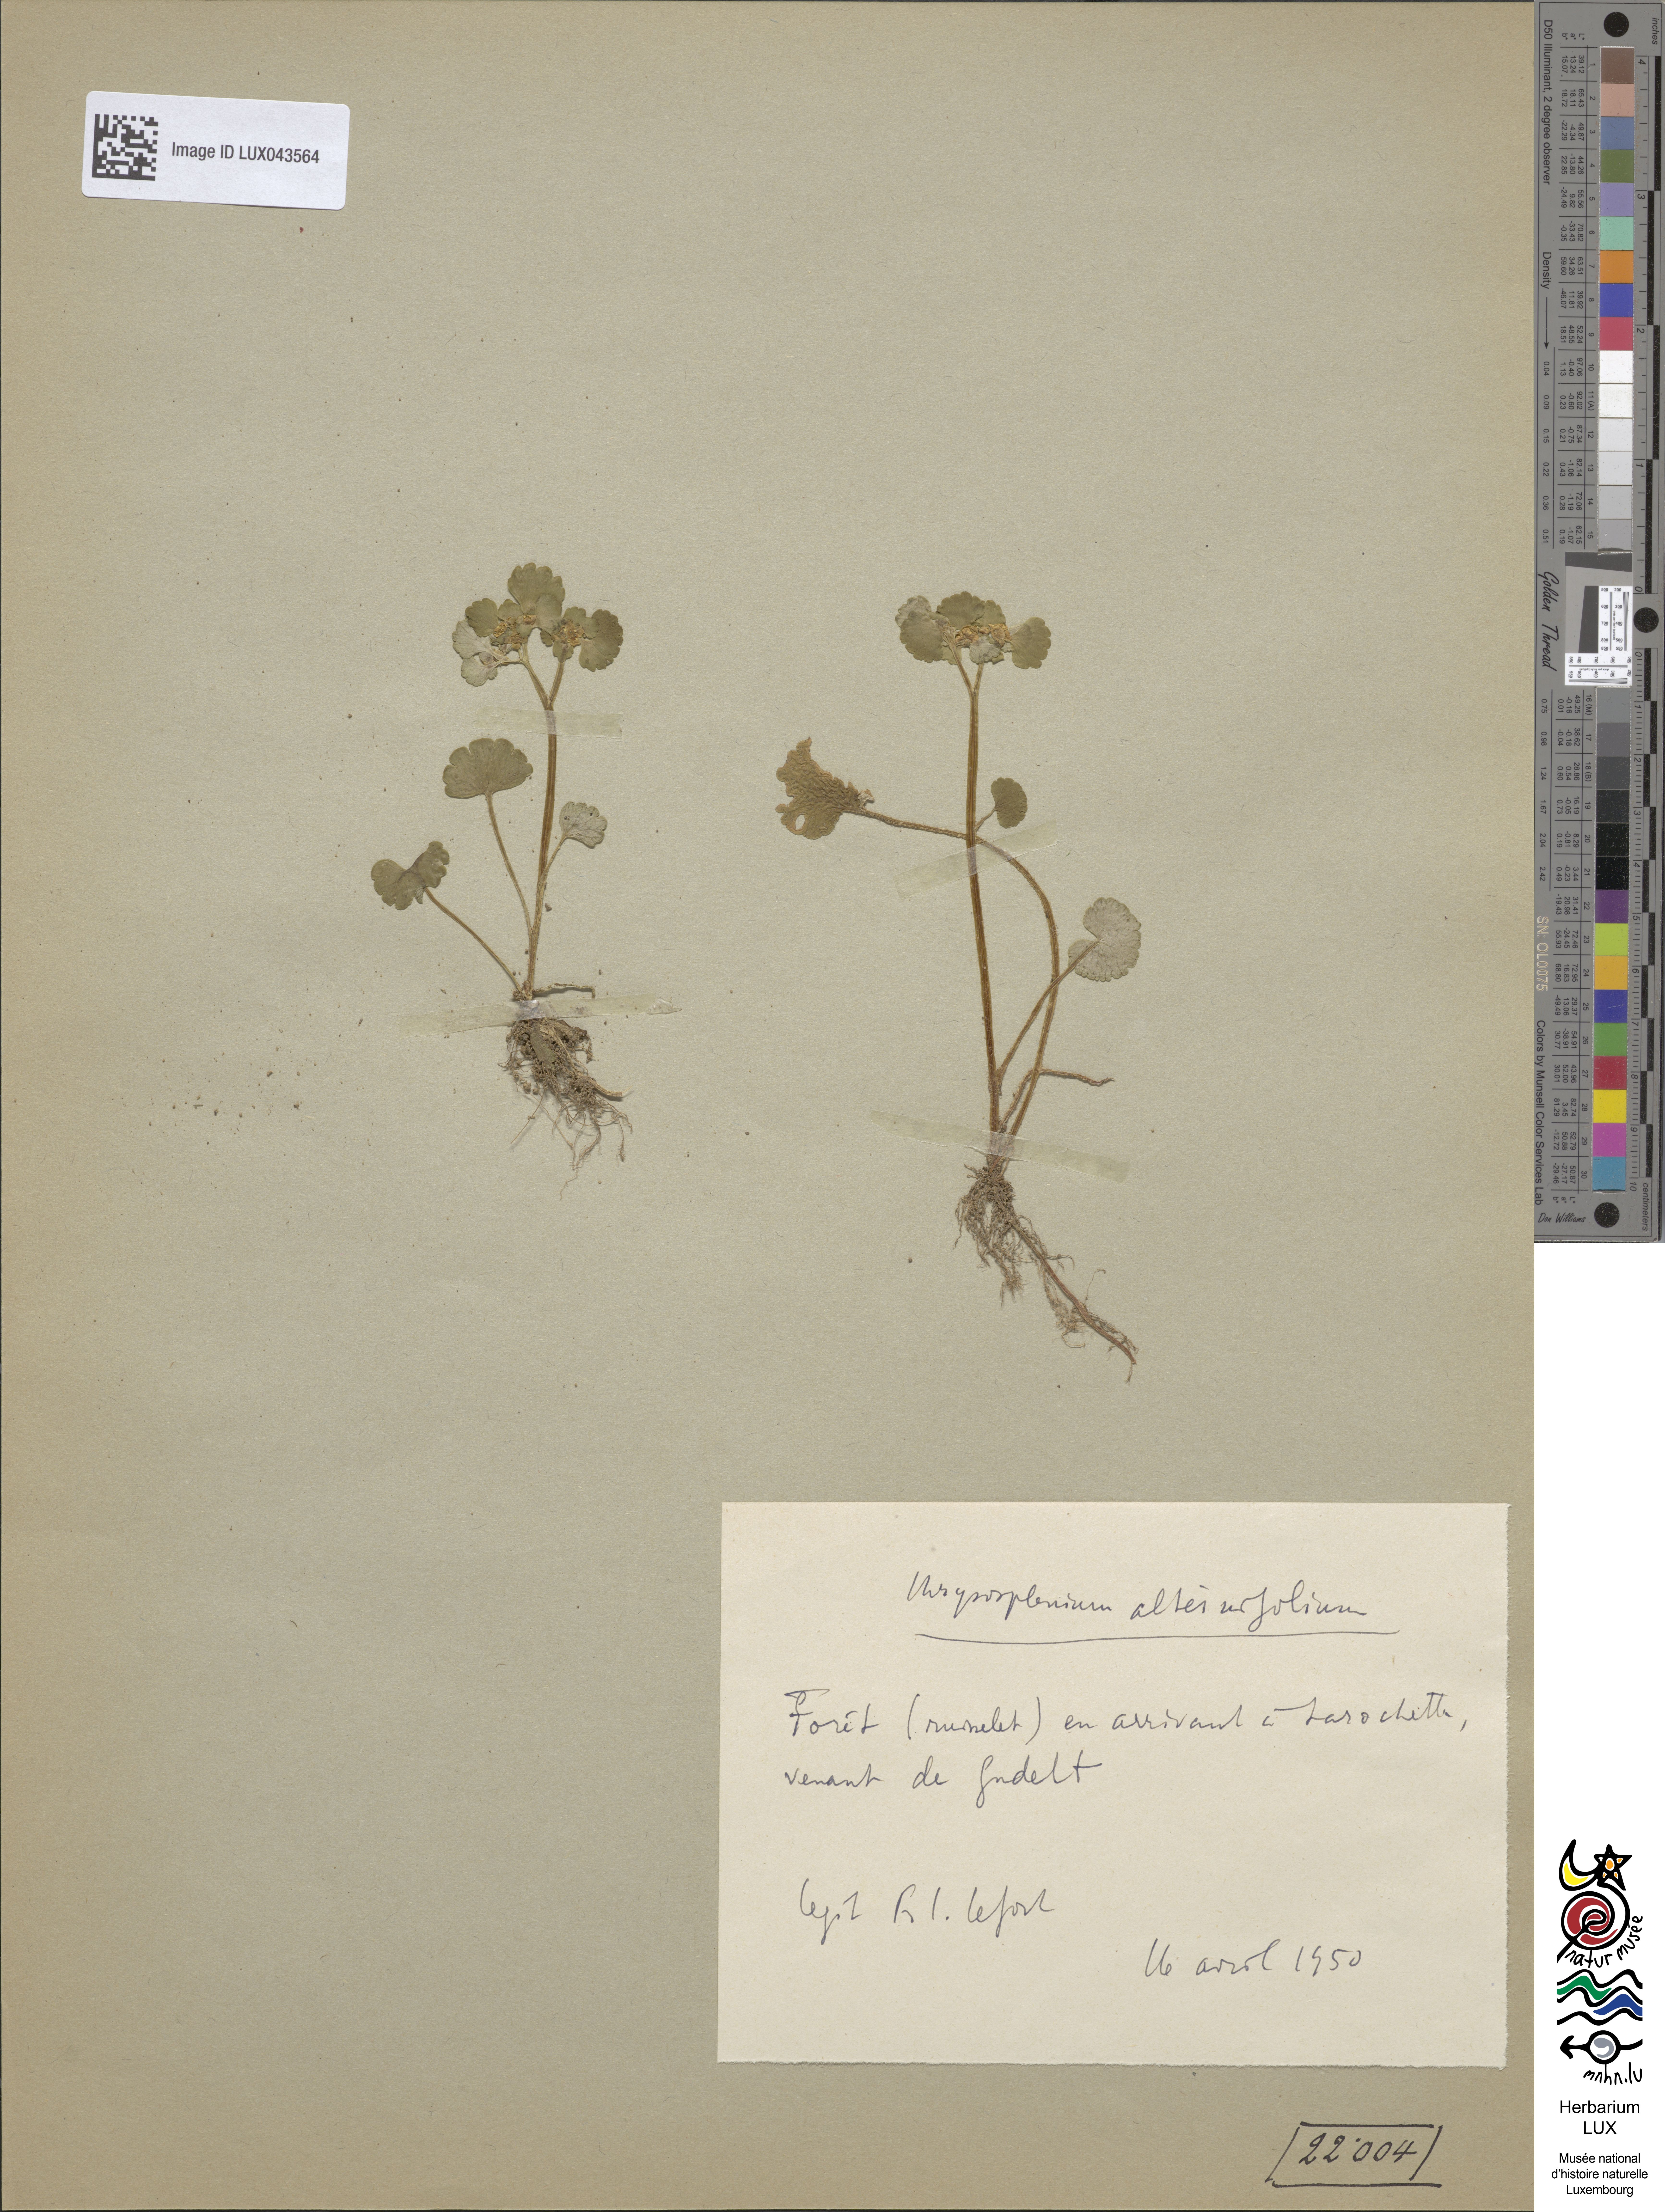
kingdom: Plantae
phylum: Tracheophyta
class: Magnoliopsida
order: Saxifragales
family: Saxifragaceae
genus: Chrysosplenium
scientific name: Chrysosplenium alternifolium
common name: Alternate-leaved golden-saxifrage
